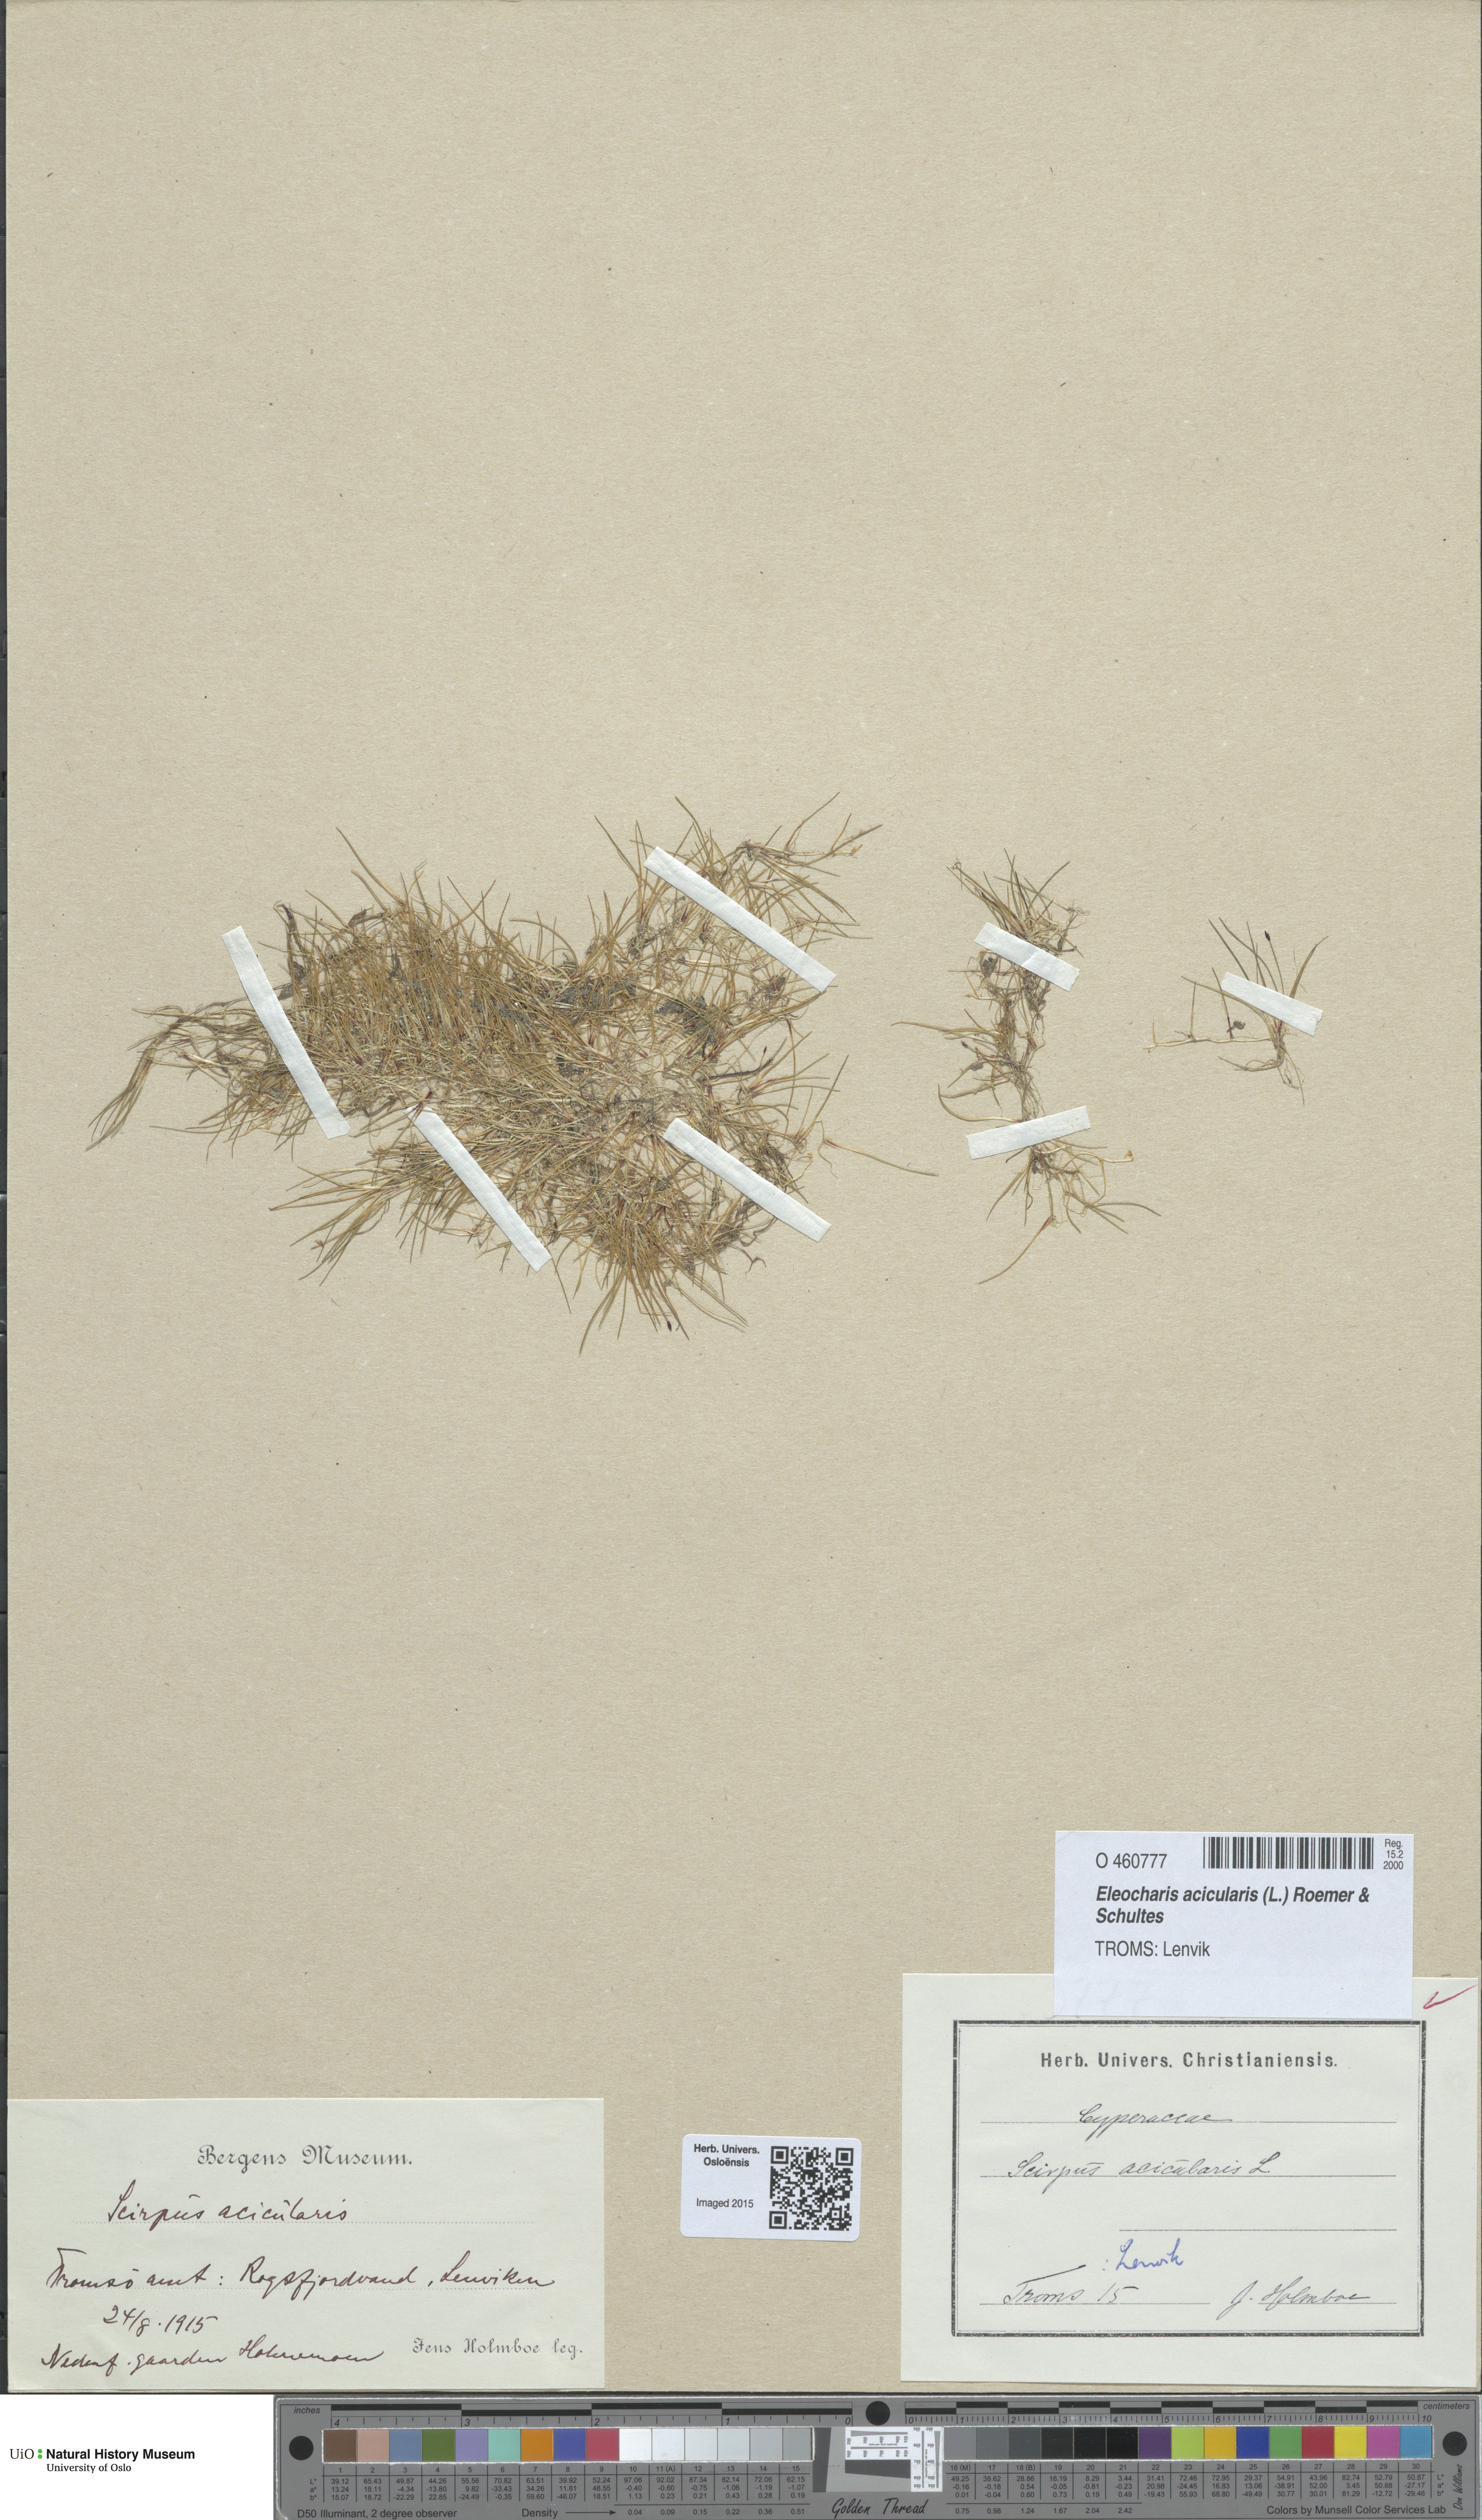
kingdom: Plantae
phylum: Tracheophyta
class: Liliopsida
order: Poales
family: Cyperaceae
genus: Eleocharis
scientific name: Eleocharis acicularis
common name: Needle spike-rush
